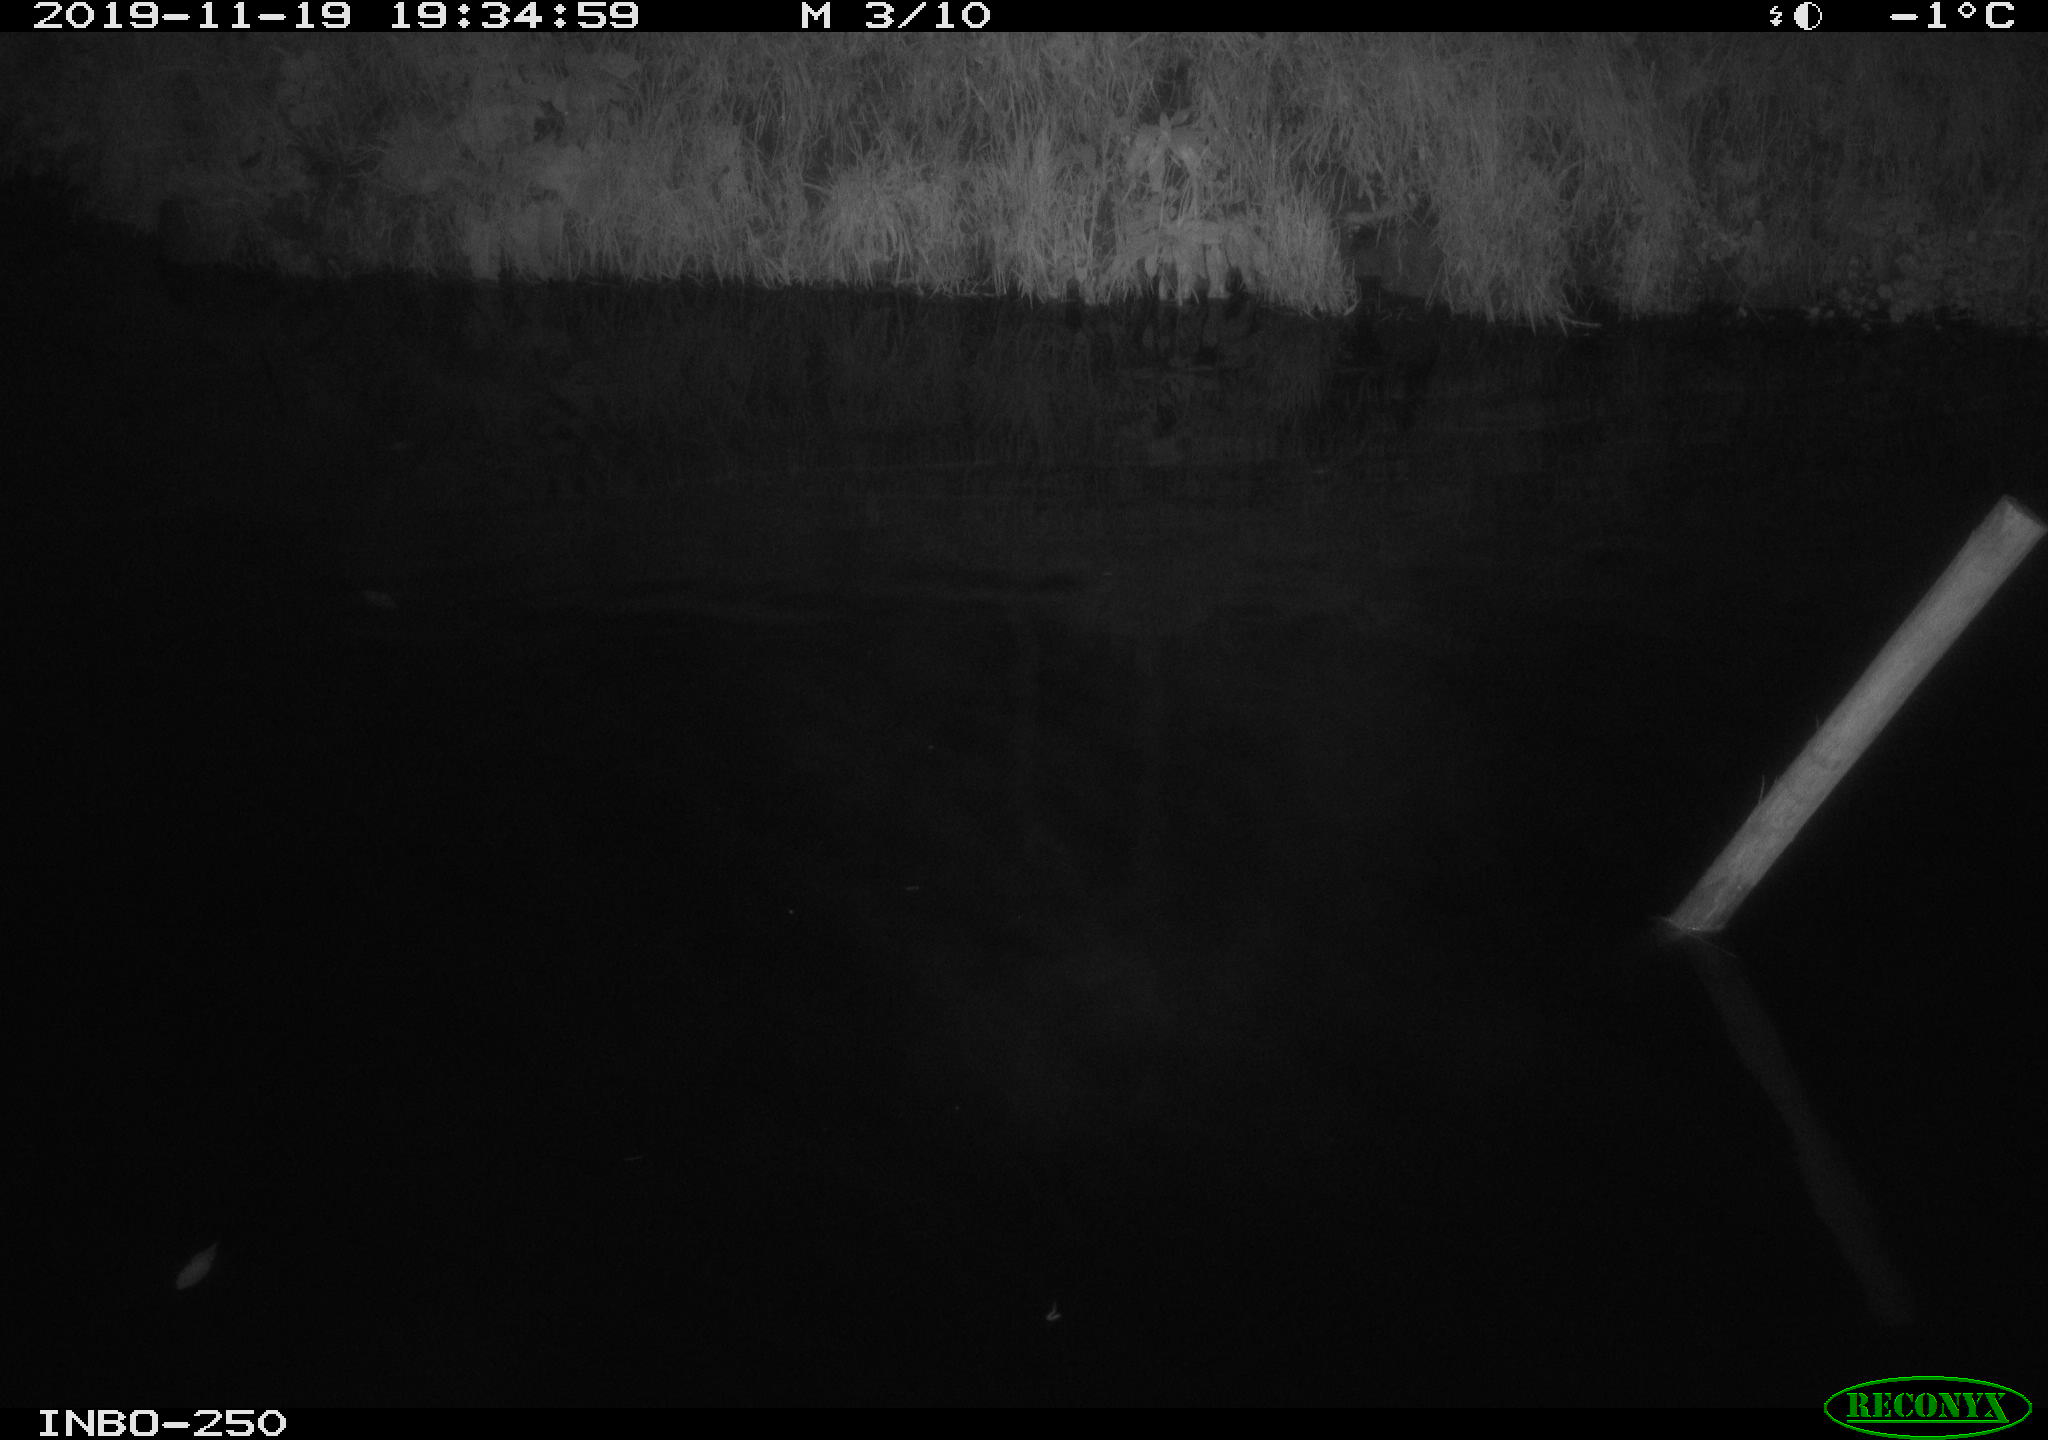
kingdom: Animalia
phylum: Chordata
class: Aves
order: Anseriformes
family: Anatidae
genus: Anas
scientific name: Anas platyrhynchos
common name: Mallard
